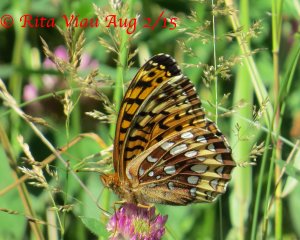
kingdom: Animalia
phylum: Arthropoda
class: Insecta
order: Lepidoptera
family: Nymphalidae
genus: Speyeria
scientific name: Speyeria cybele
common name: Great Spangled Fritillary
